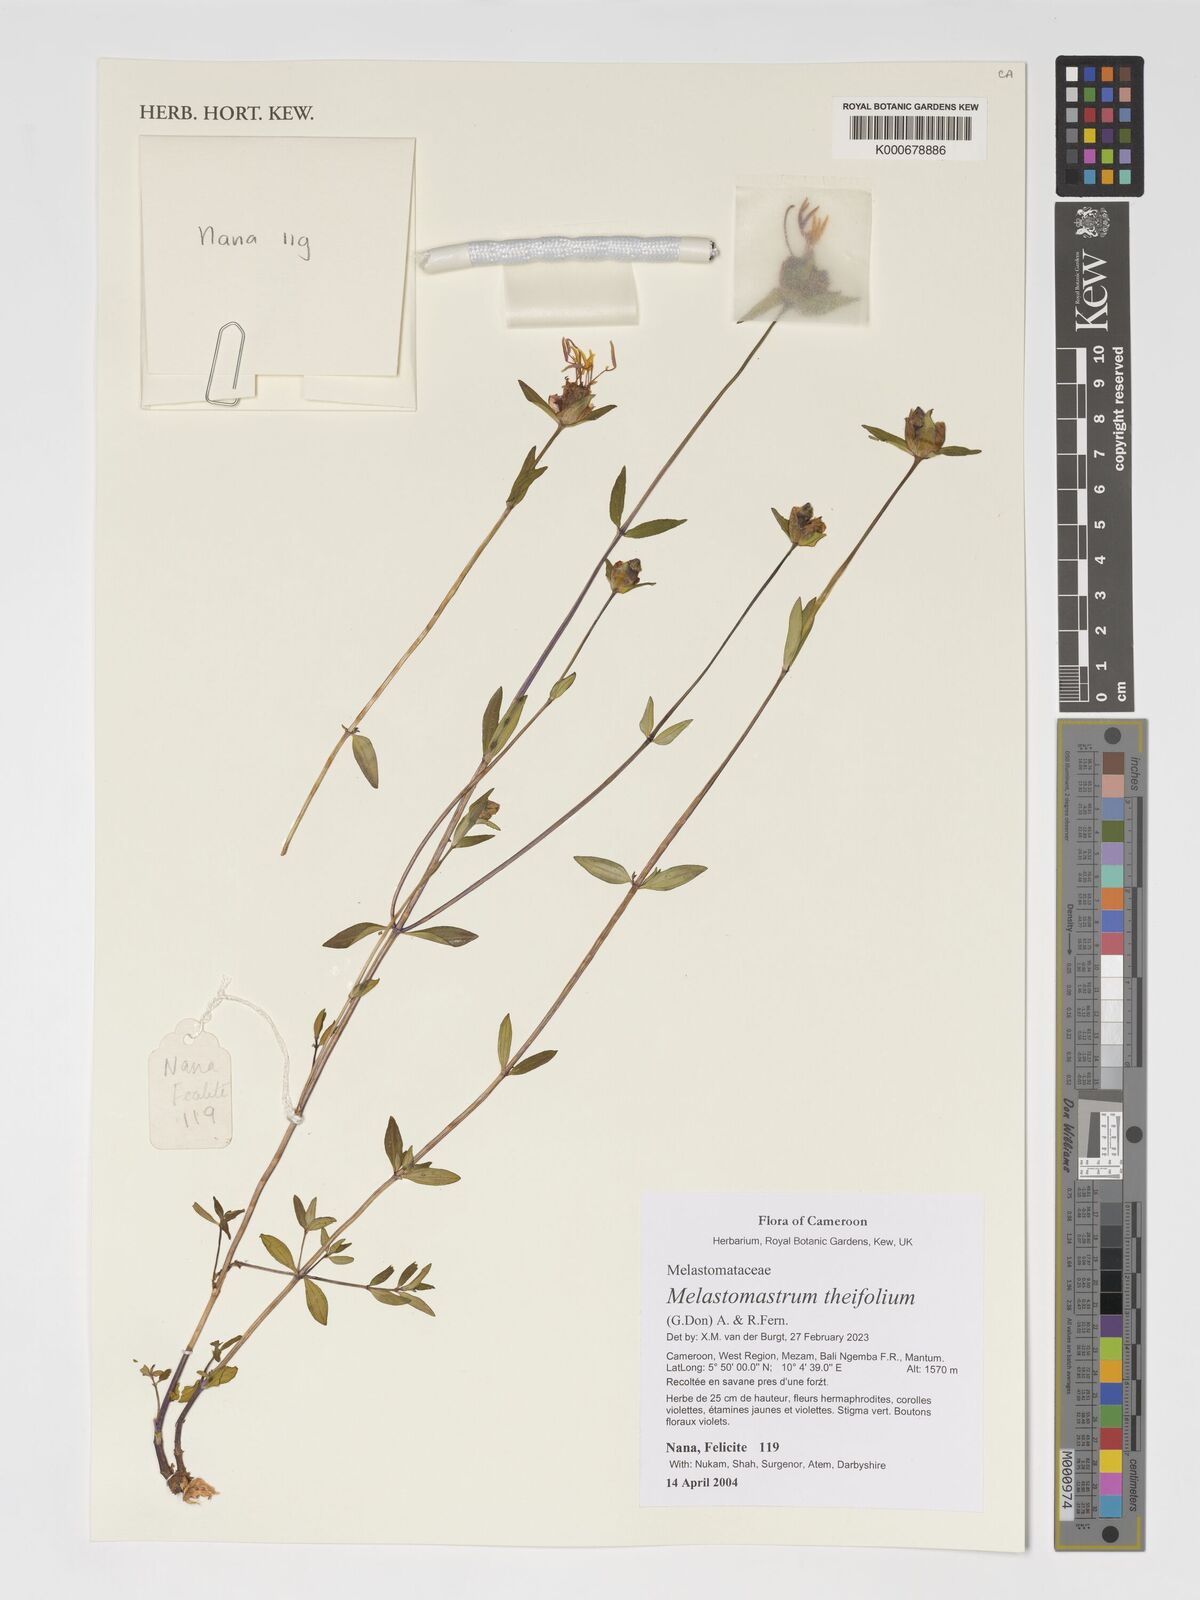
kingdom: Plantae
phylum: Tracheophyta
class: Magnoliopsida
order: Myrtales
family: Melastomataceae
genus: Melastomastrum
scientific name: Melastomastrum theifolium
